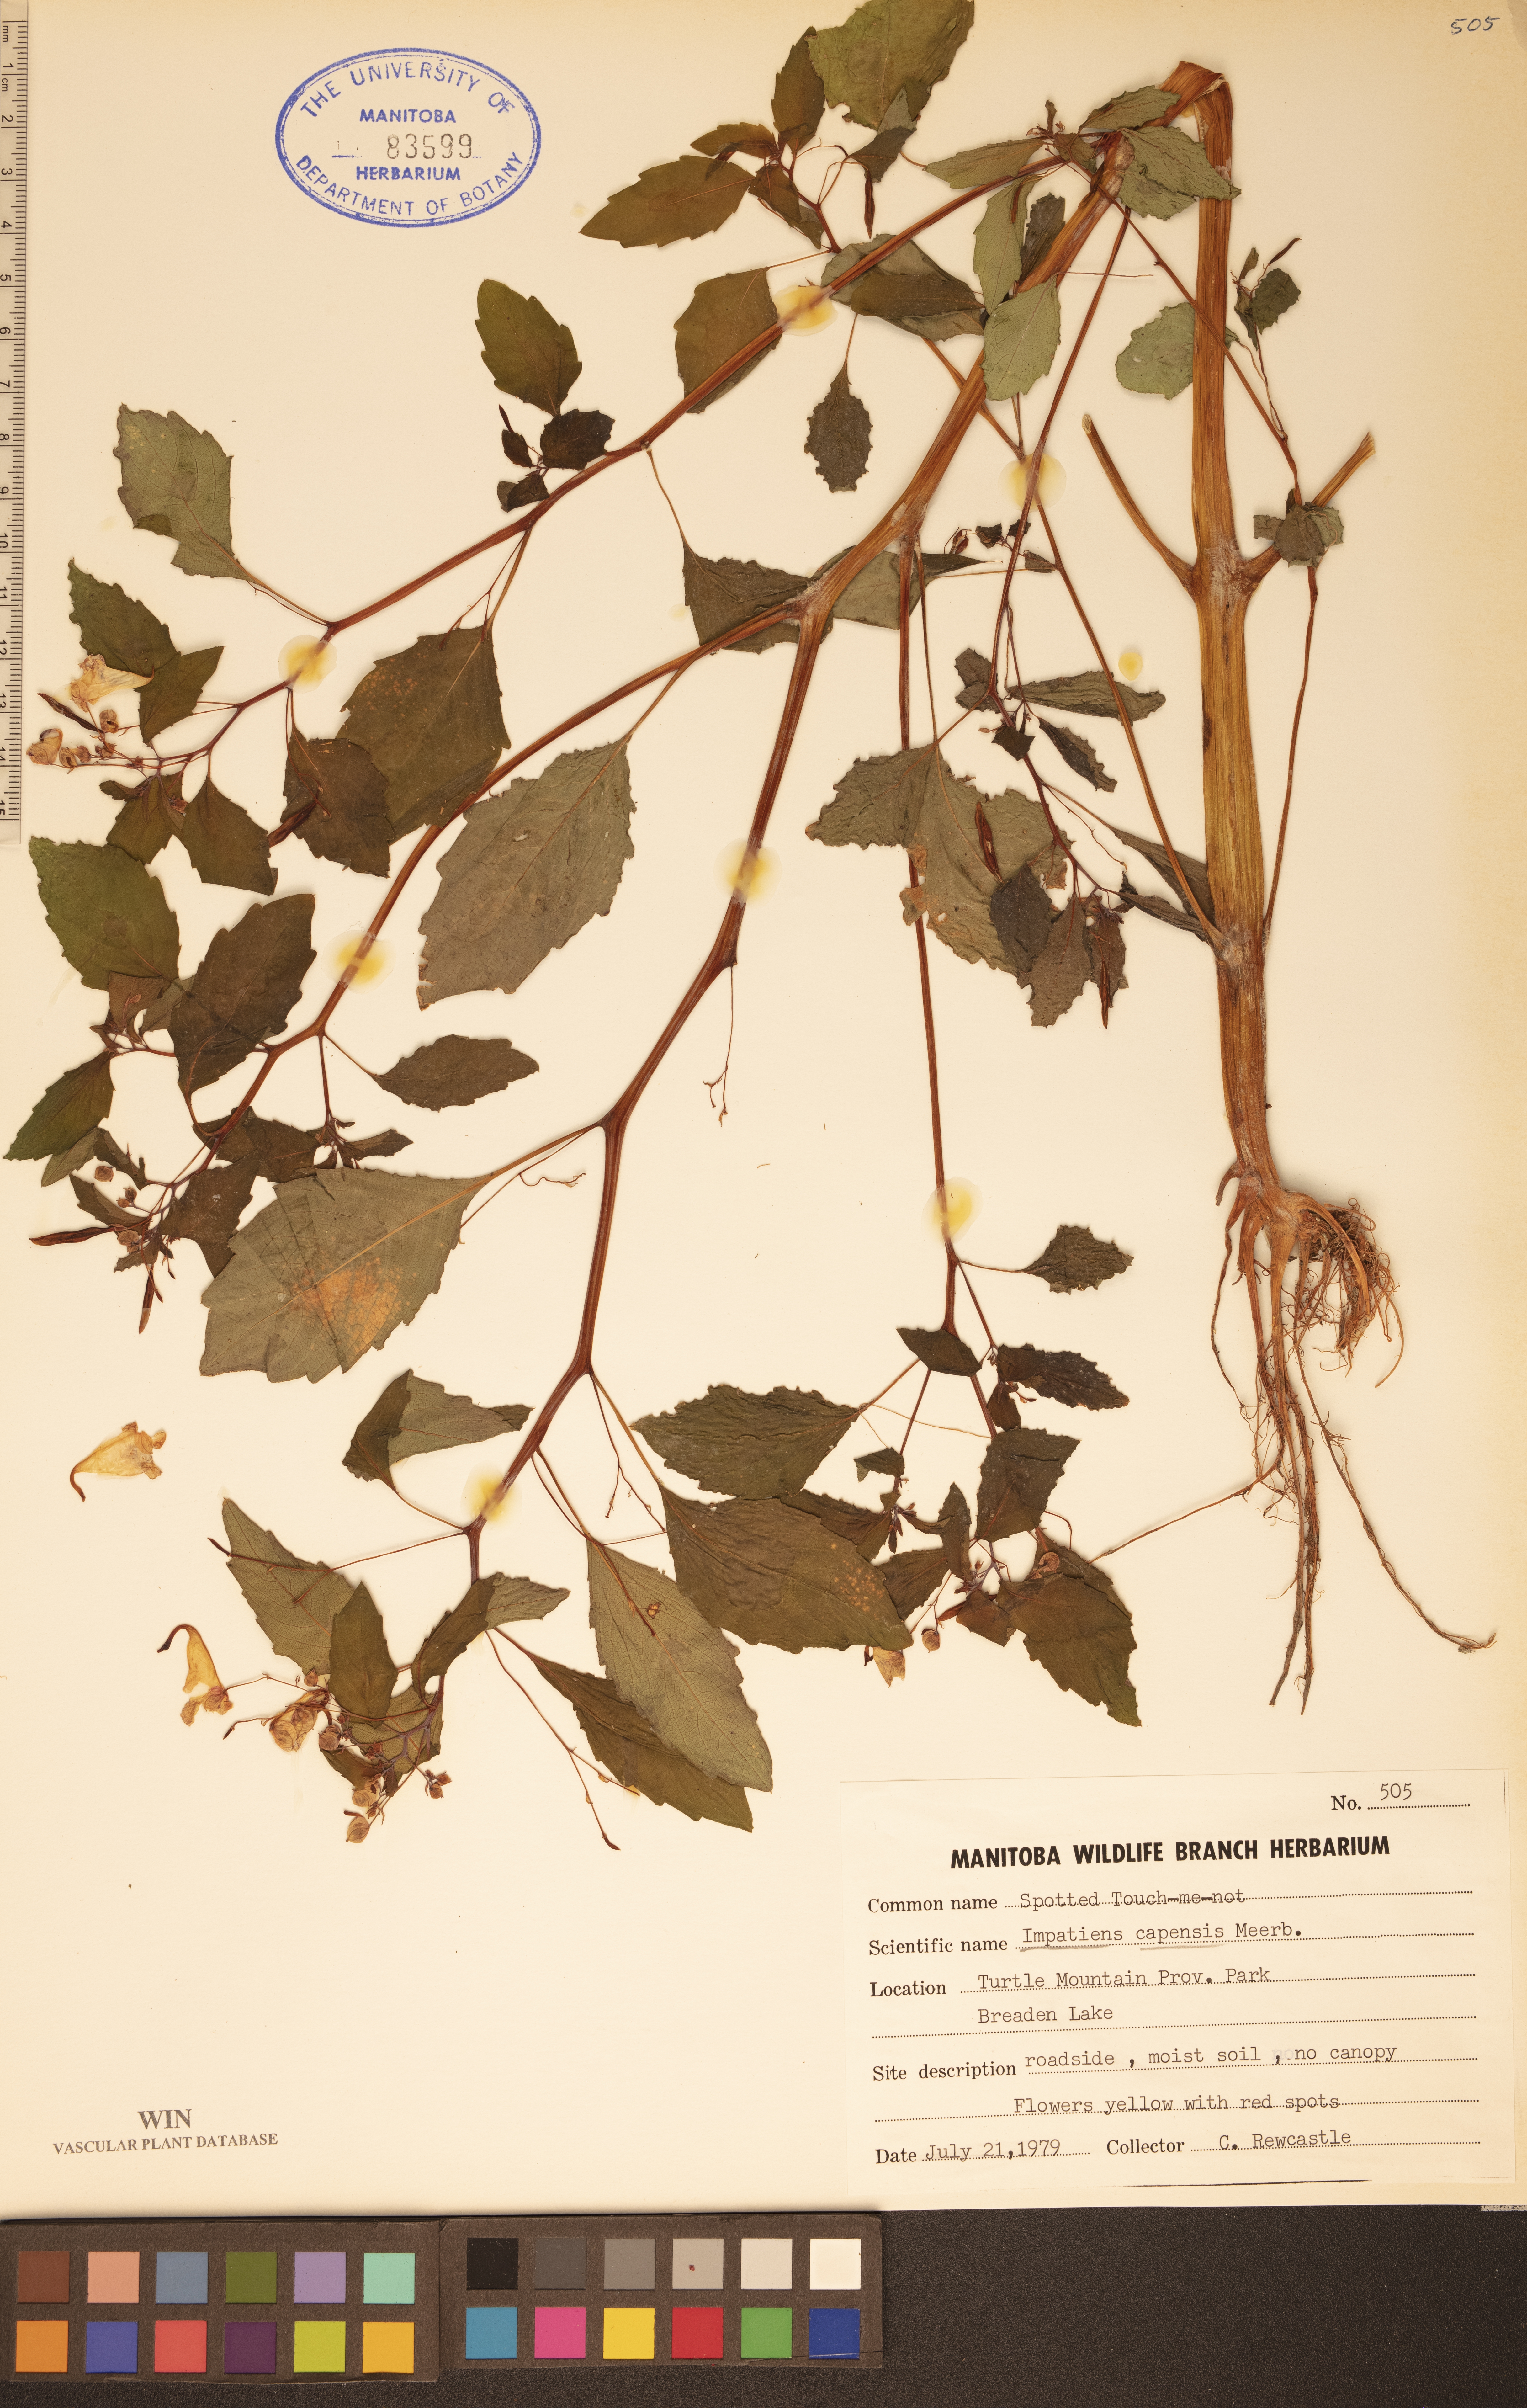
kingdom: Plantae
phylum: Tracheophyta
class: Magnoliopsida
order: Ericales
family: Balsaminaceae
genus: Impatiens
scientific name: Impatiens capensis
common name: Orange balsam
